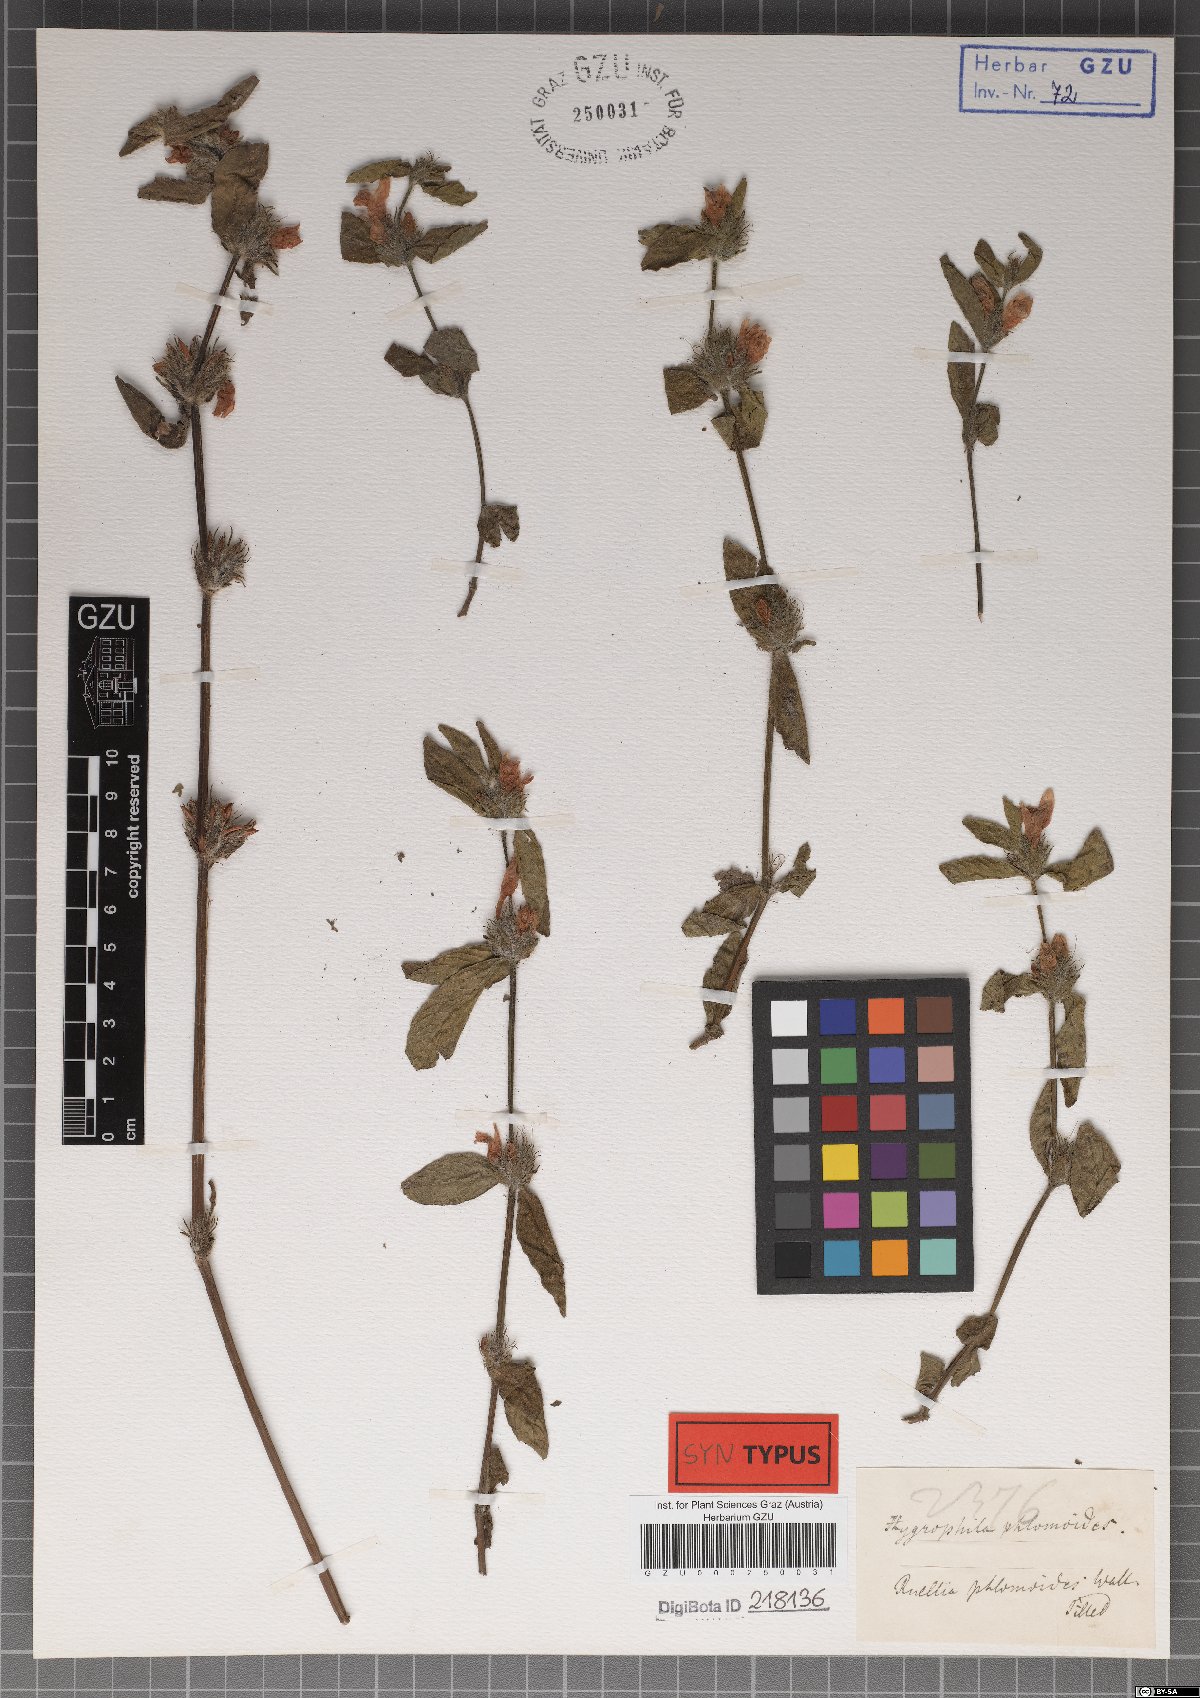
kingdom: Plantae
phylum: Tracheophyta
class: Magnoliopsida
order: Lamiales
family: Acanthaceae
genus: Hygrophila
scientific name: Hygrophila phlomoides
